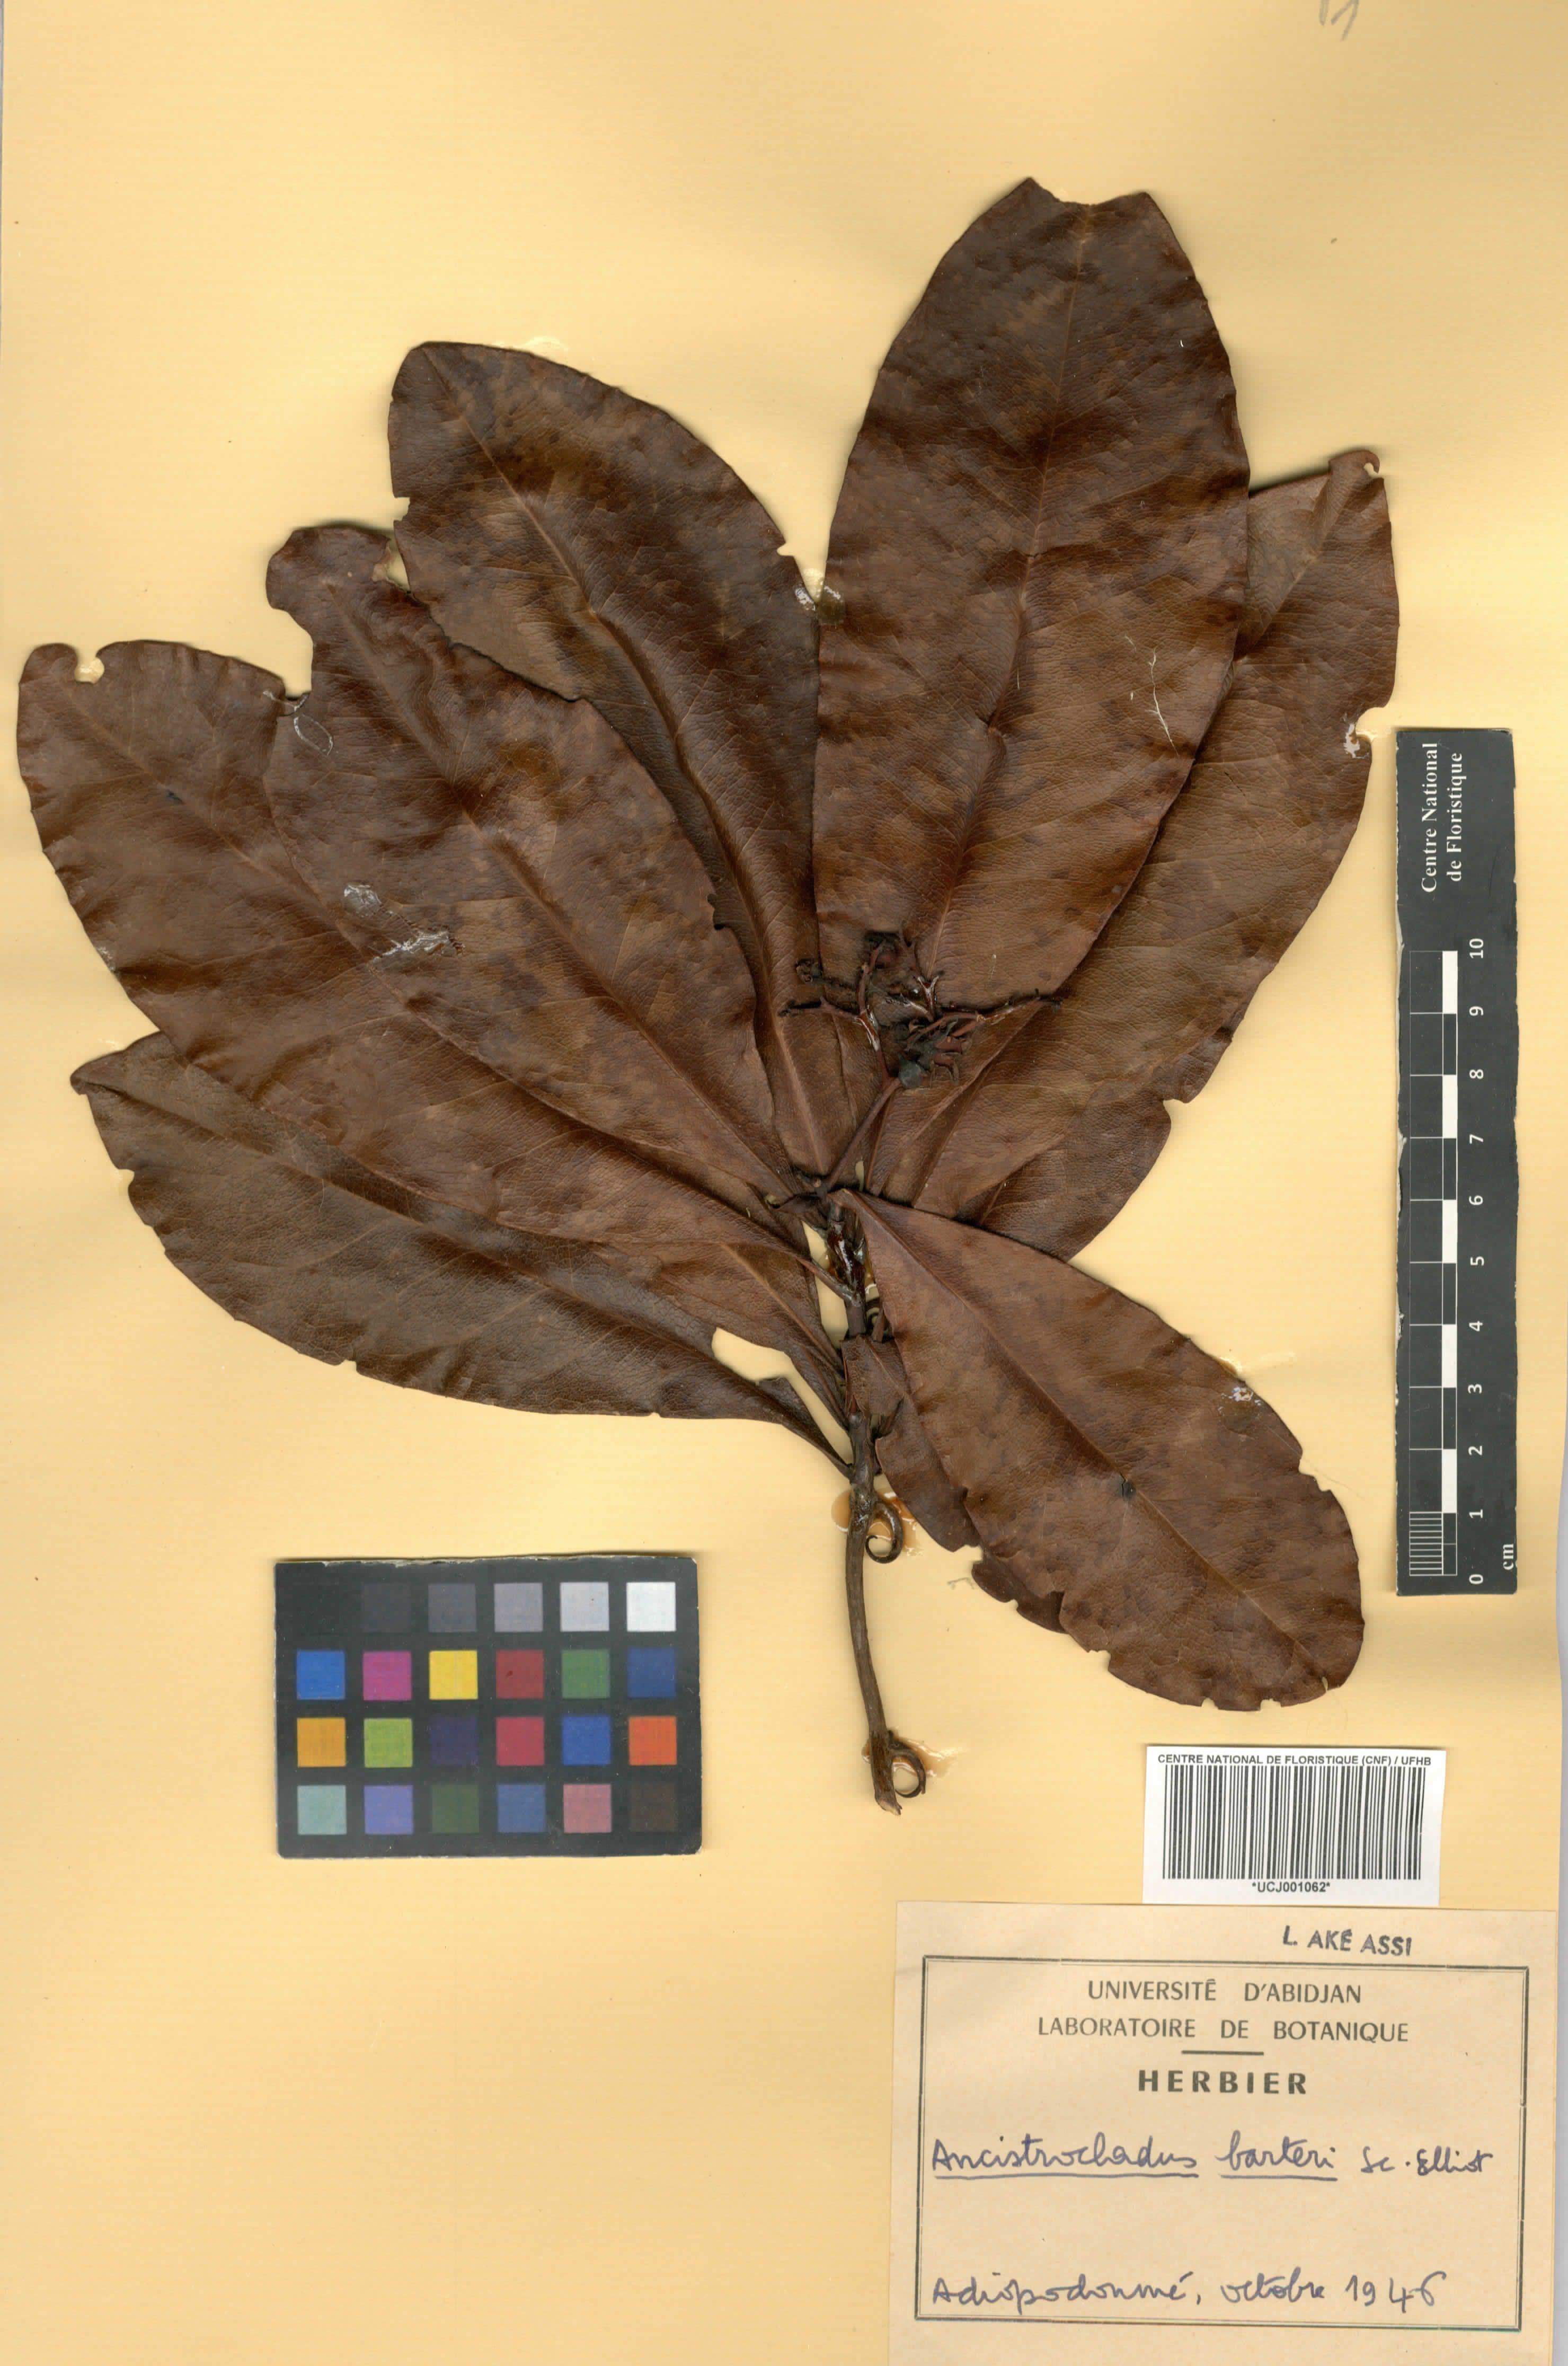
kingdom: Plantae
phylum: Tracheophyta
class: Magnoliopsida
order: Caryophyllales
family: Ancistrocladaceae
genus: Ancistrocladus
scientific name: Ancistrocladus barteri
